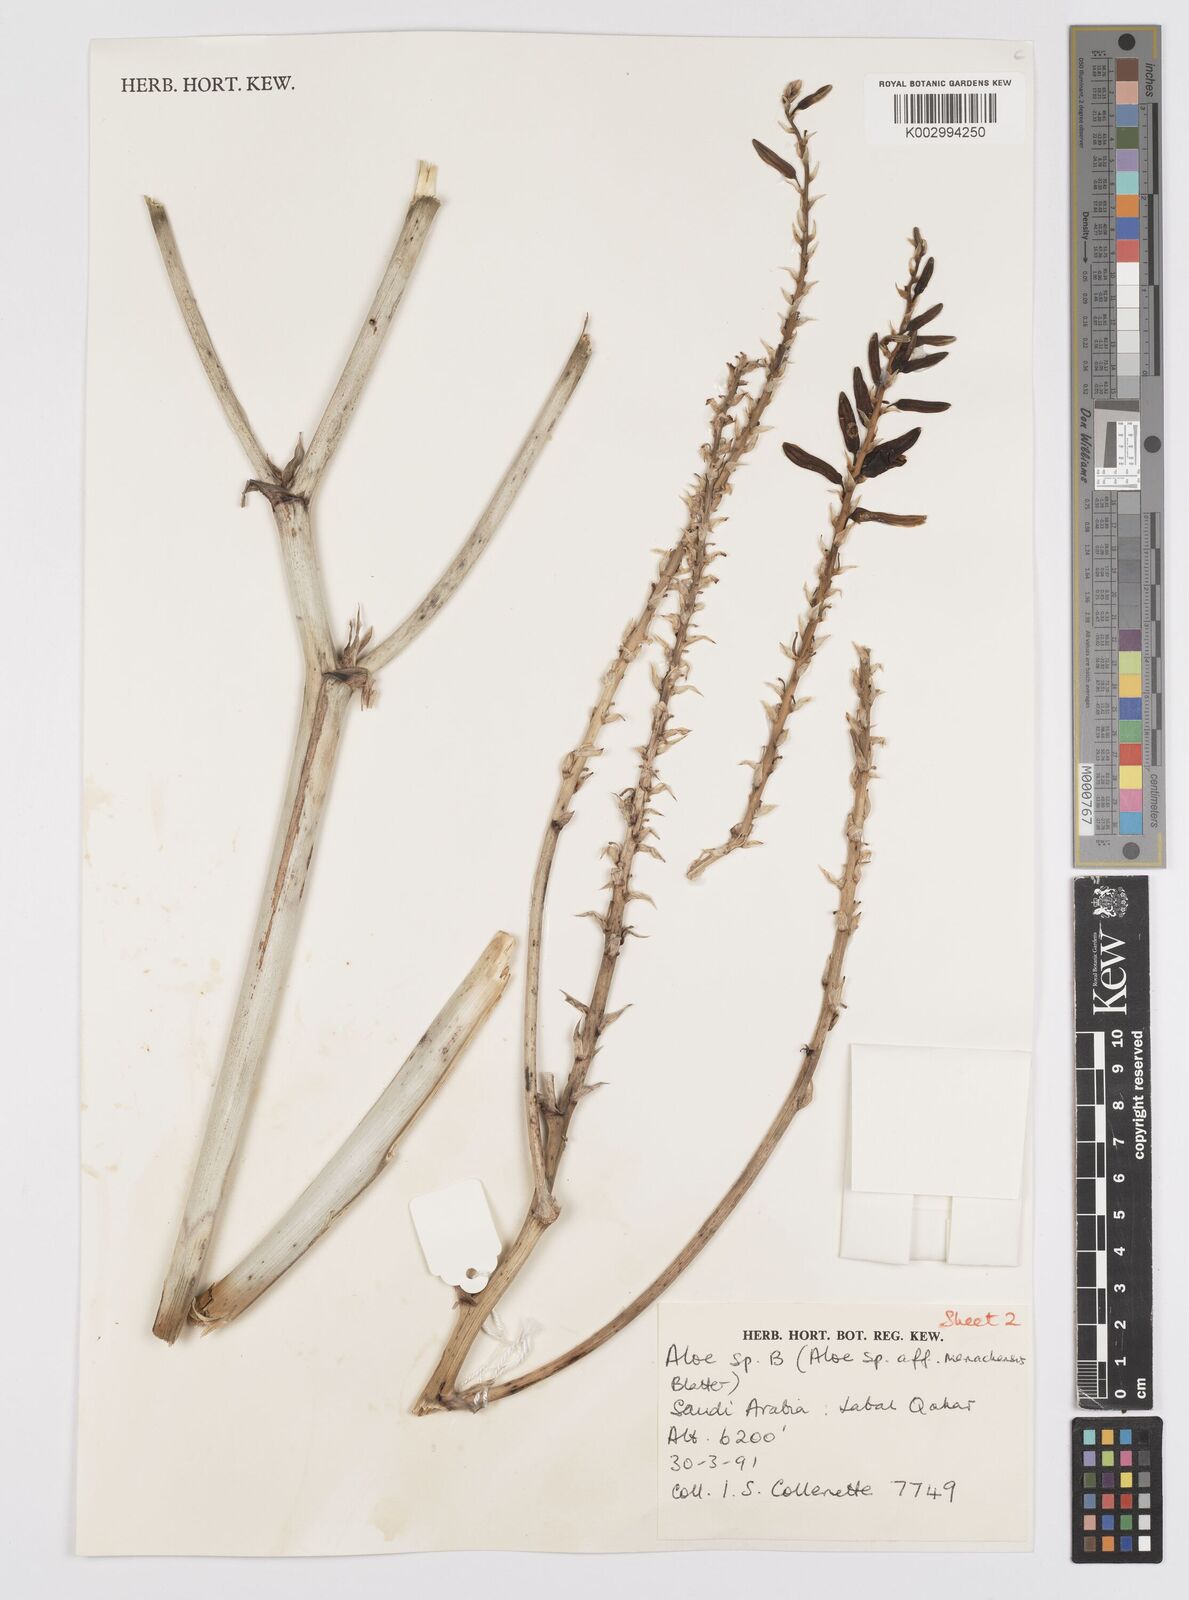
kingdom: Plantae
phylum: Tracheophyta
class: Liliopsida
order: Asparagales
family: Asphodelaceae
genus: Aloe
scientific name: Aloe
